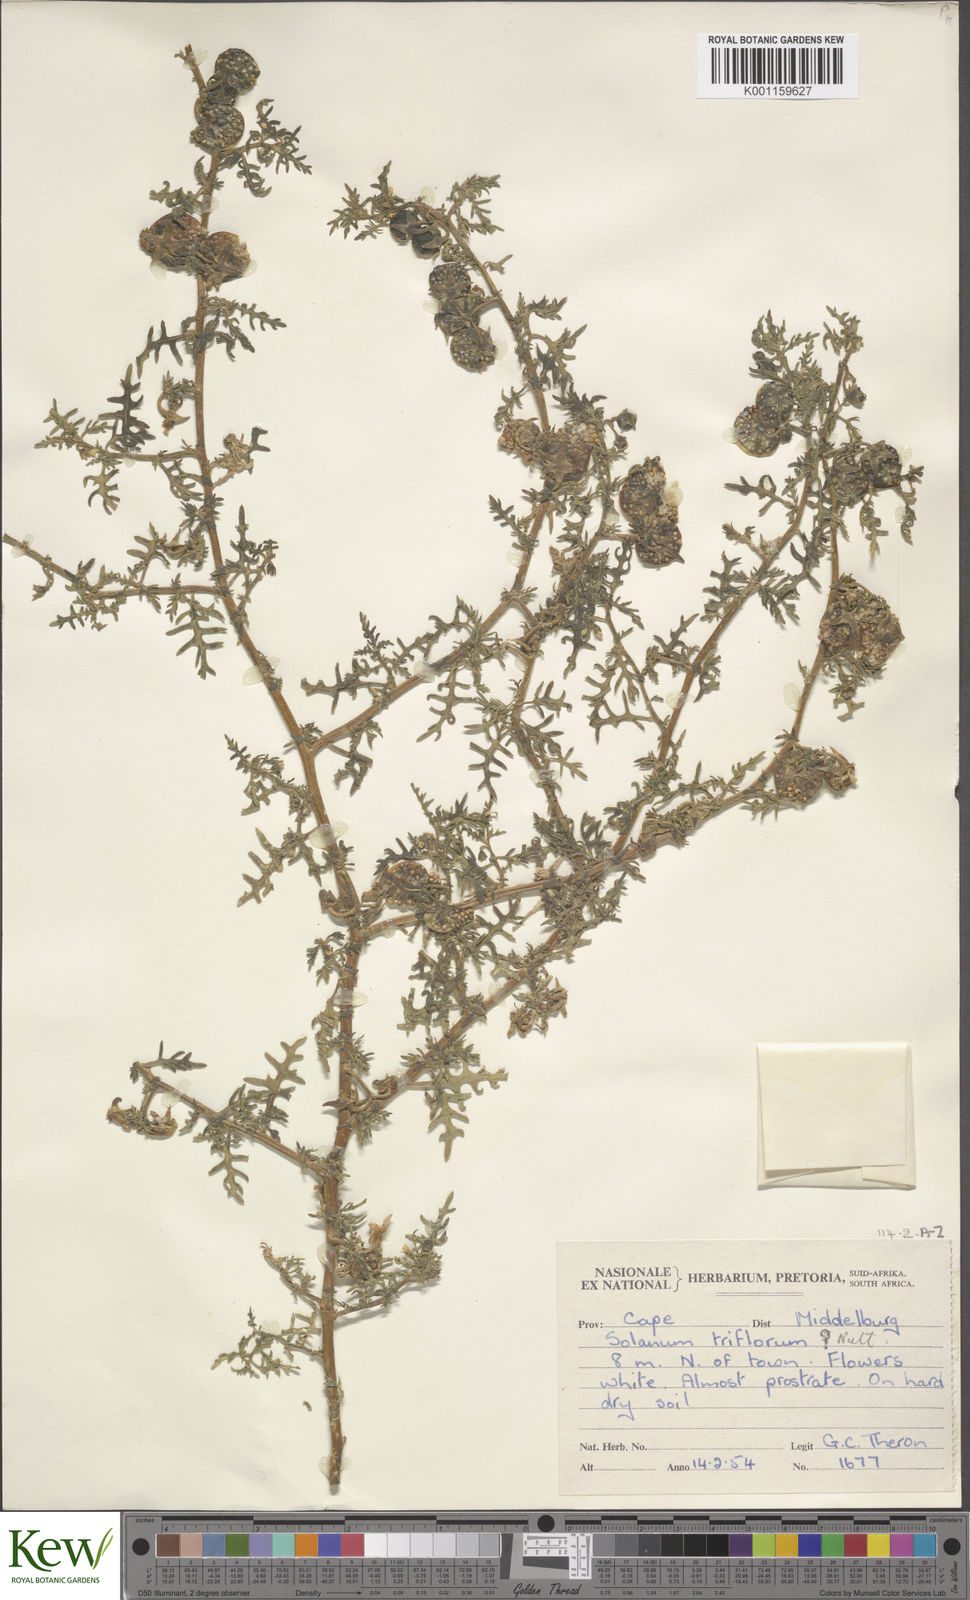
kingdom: Plantae
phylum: Tracheophyta
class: Magnoliopsida
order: Solanales
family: Solanaceae
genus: Solanum
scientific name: Solanum triflorum
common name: Small nightshade
